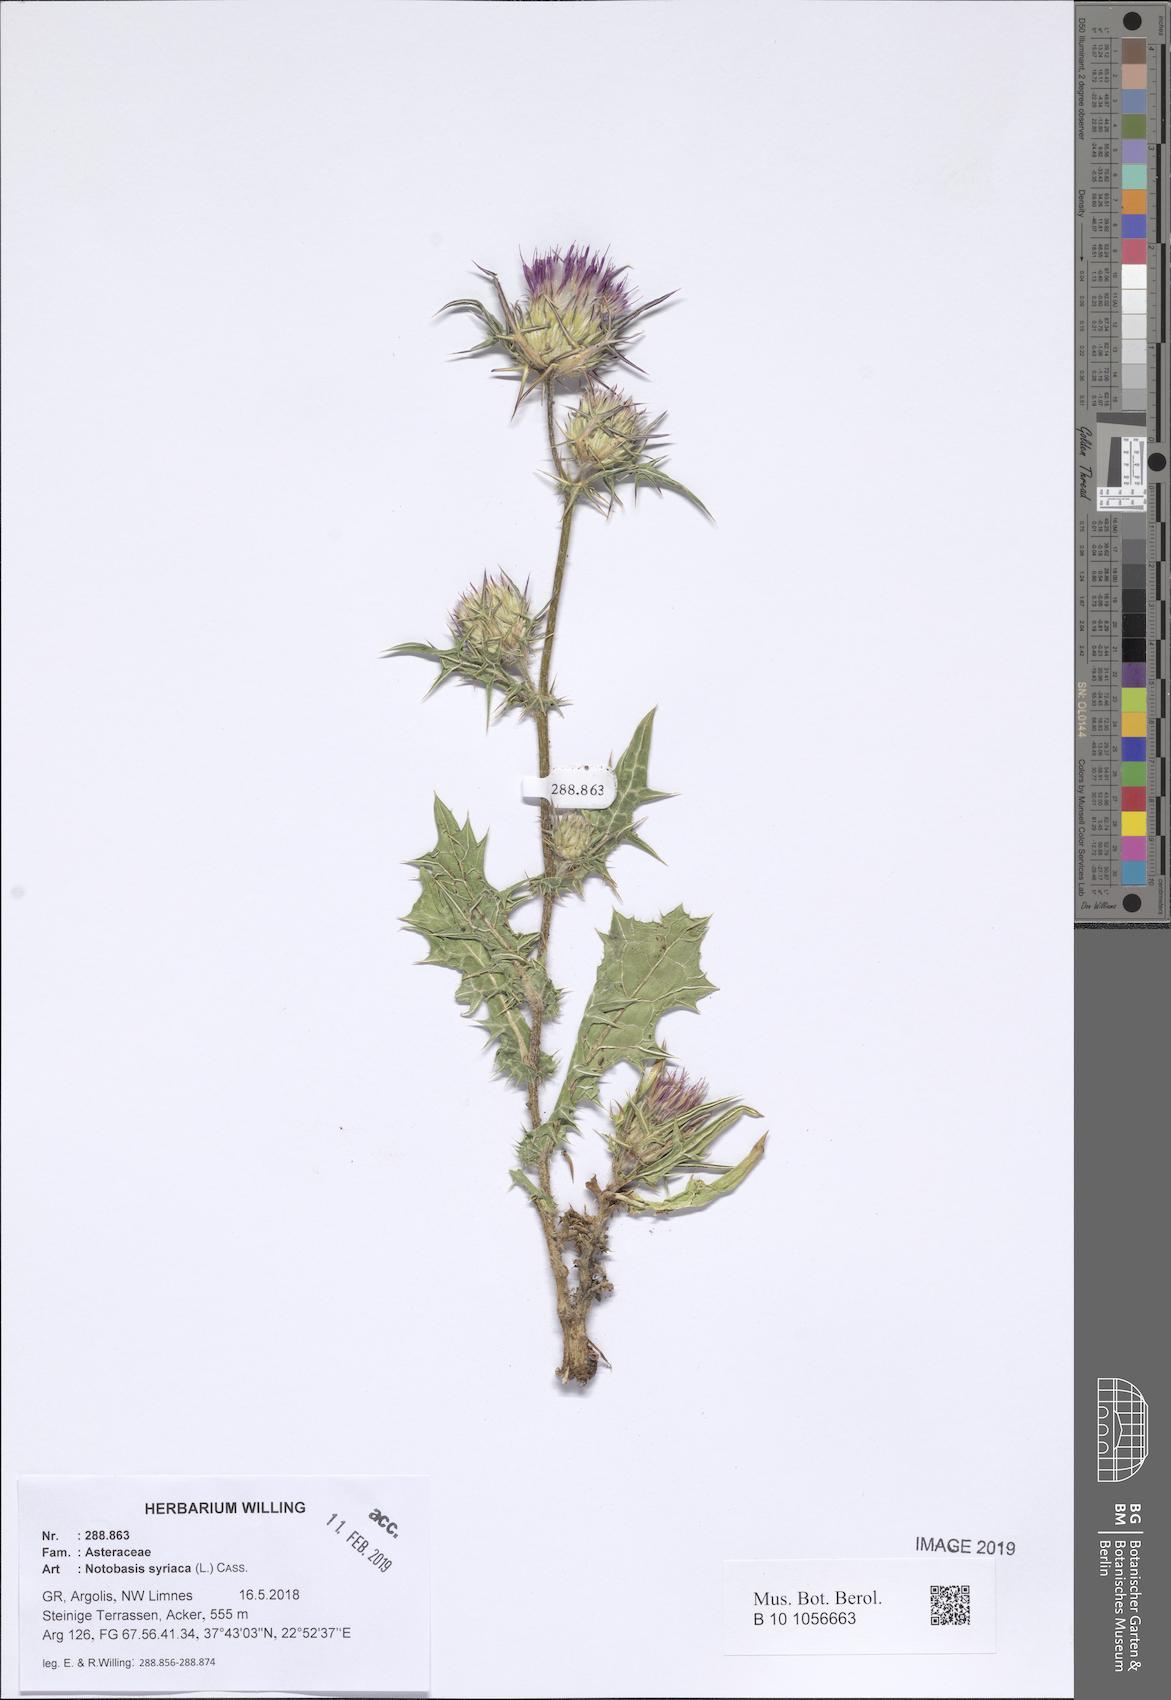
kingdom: Plantae
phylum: Tracheophyta
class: Magnoliopsida
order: Asterales
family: Asteraceae
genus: Notobasis
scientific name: Notobasis syriaca
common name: Syrian thistle
